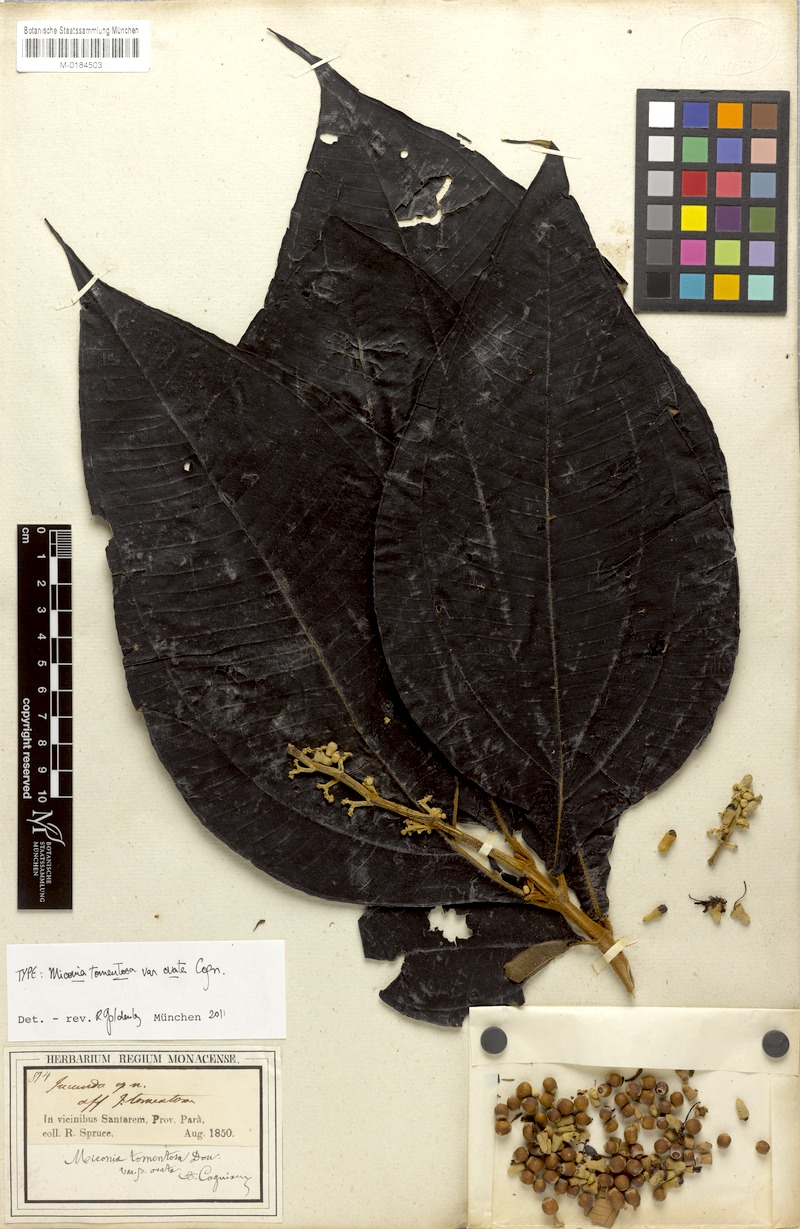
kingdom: Plantae
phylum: Tracheophyta
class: Magnoliopsida
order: Myrtales
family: Melastomataceae
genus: Miconia
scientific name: Miconia tomentosa
